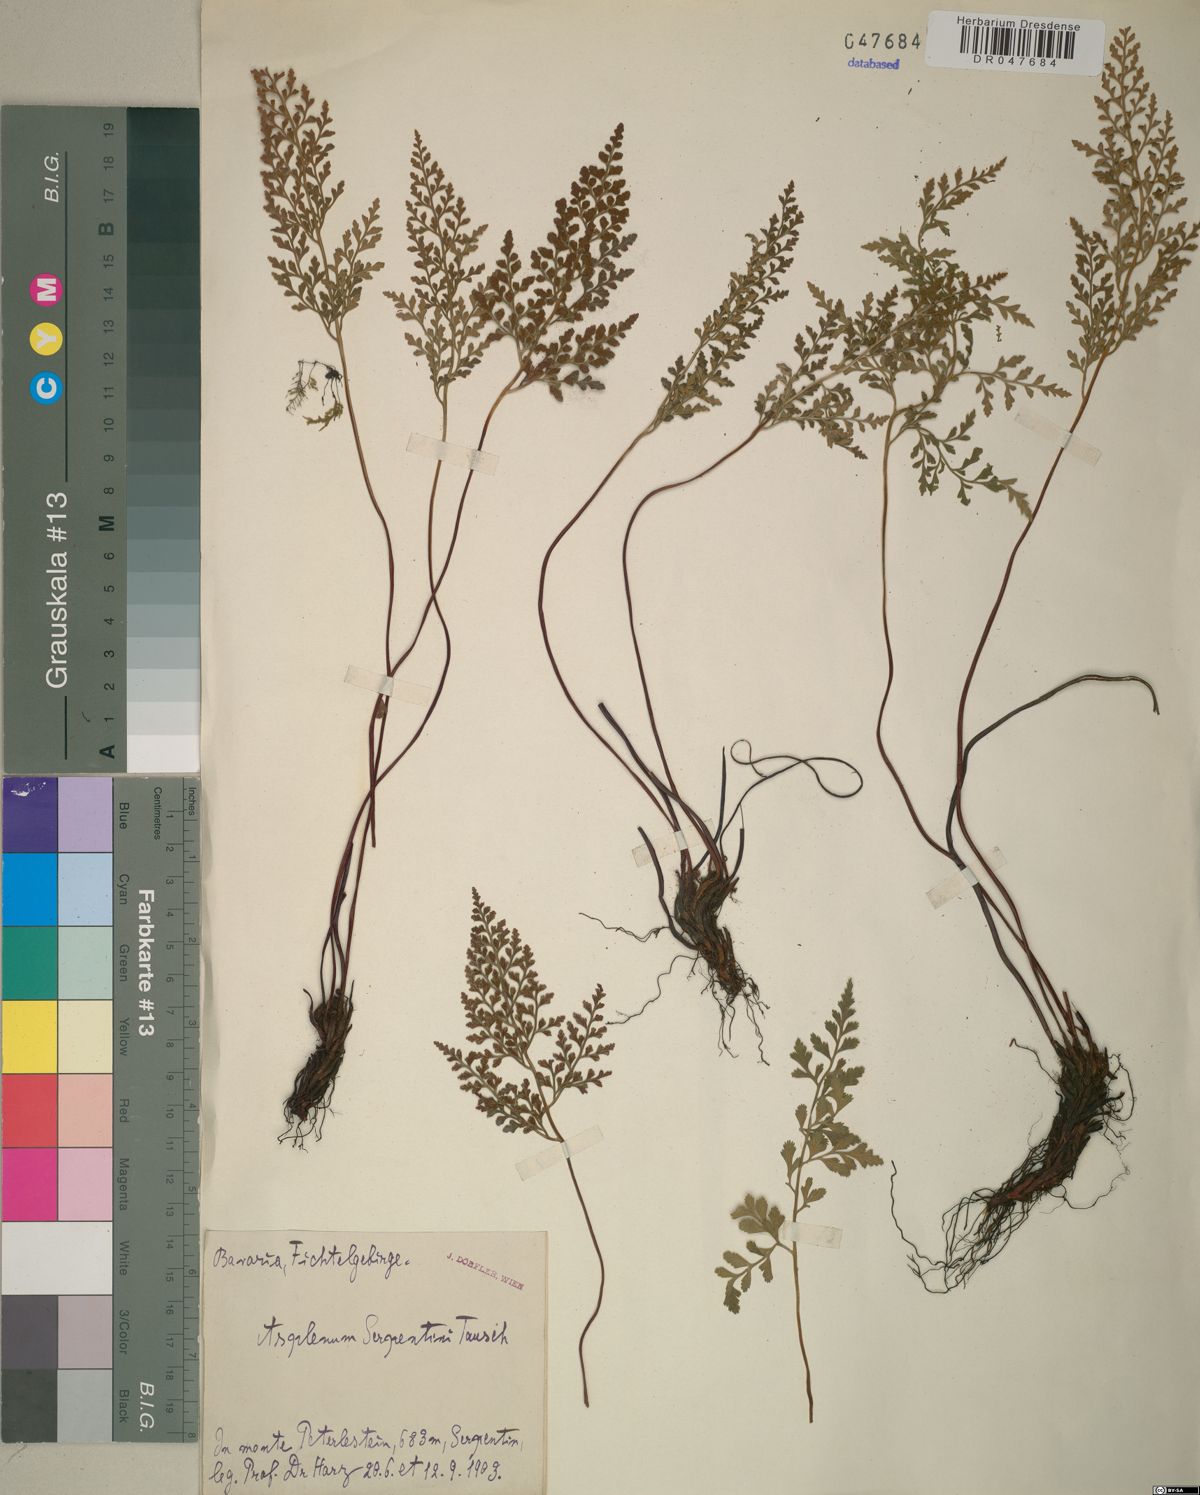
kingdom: Plantae
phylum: Tracheophyta
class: Polypodiopsida
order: Polypodiales
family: Aspleniaceae
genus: Asplenium
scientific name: Asplenium cuneifolium
